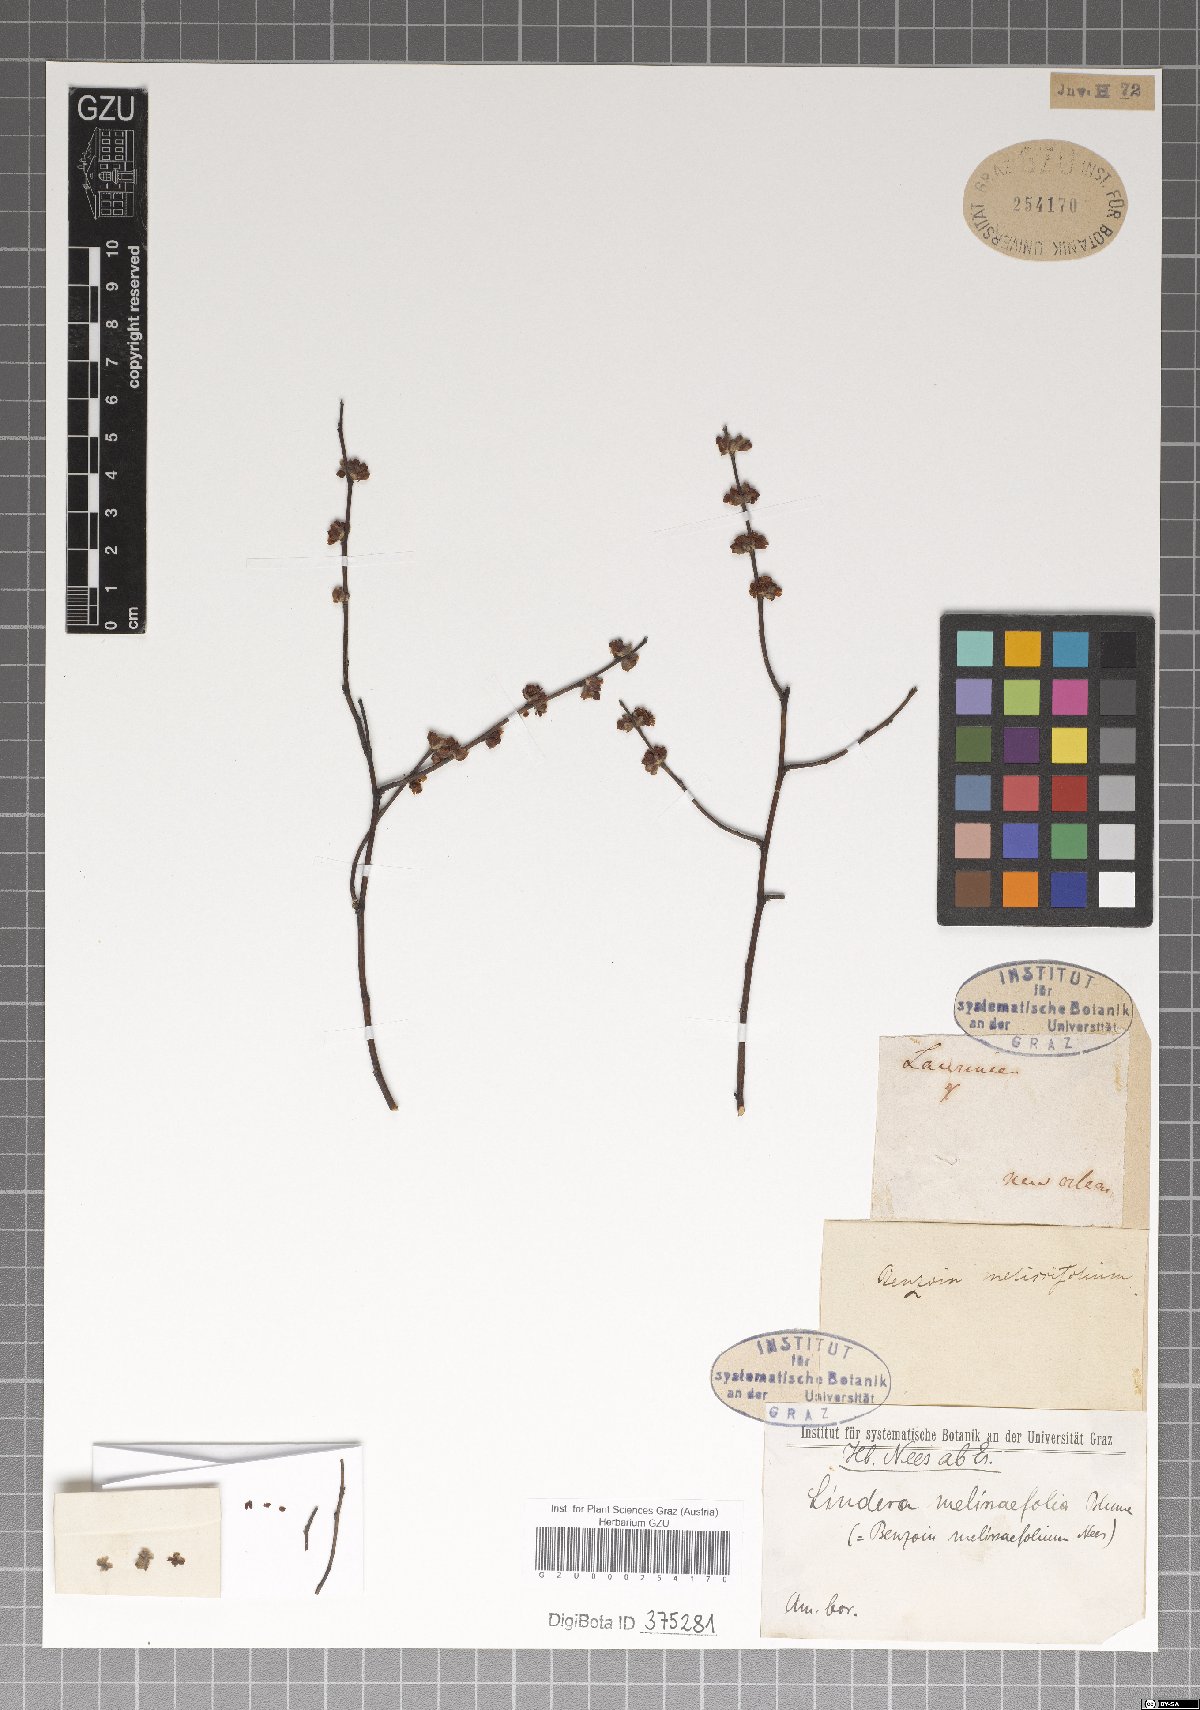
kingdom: Plantae
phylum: Tracheophyta
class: Magnoliopsida
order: Laurales
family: Lauraceae
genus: Lindera
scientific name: Lindera melissifolia
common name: Pondberry
